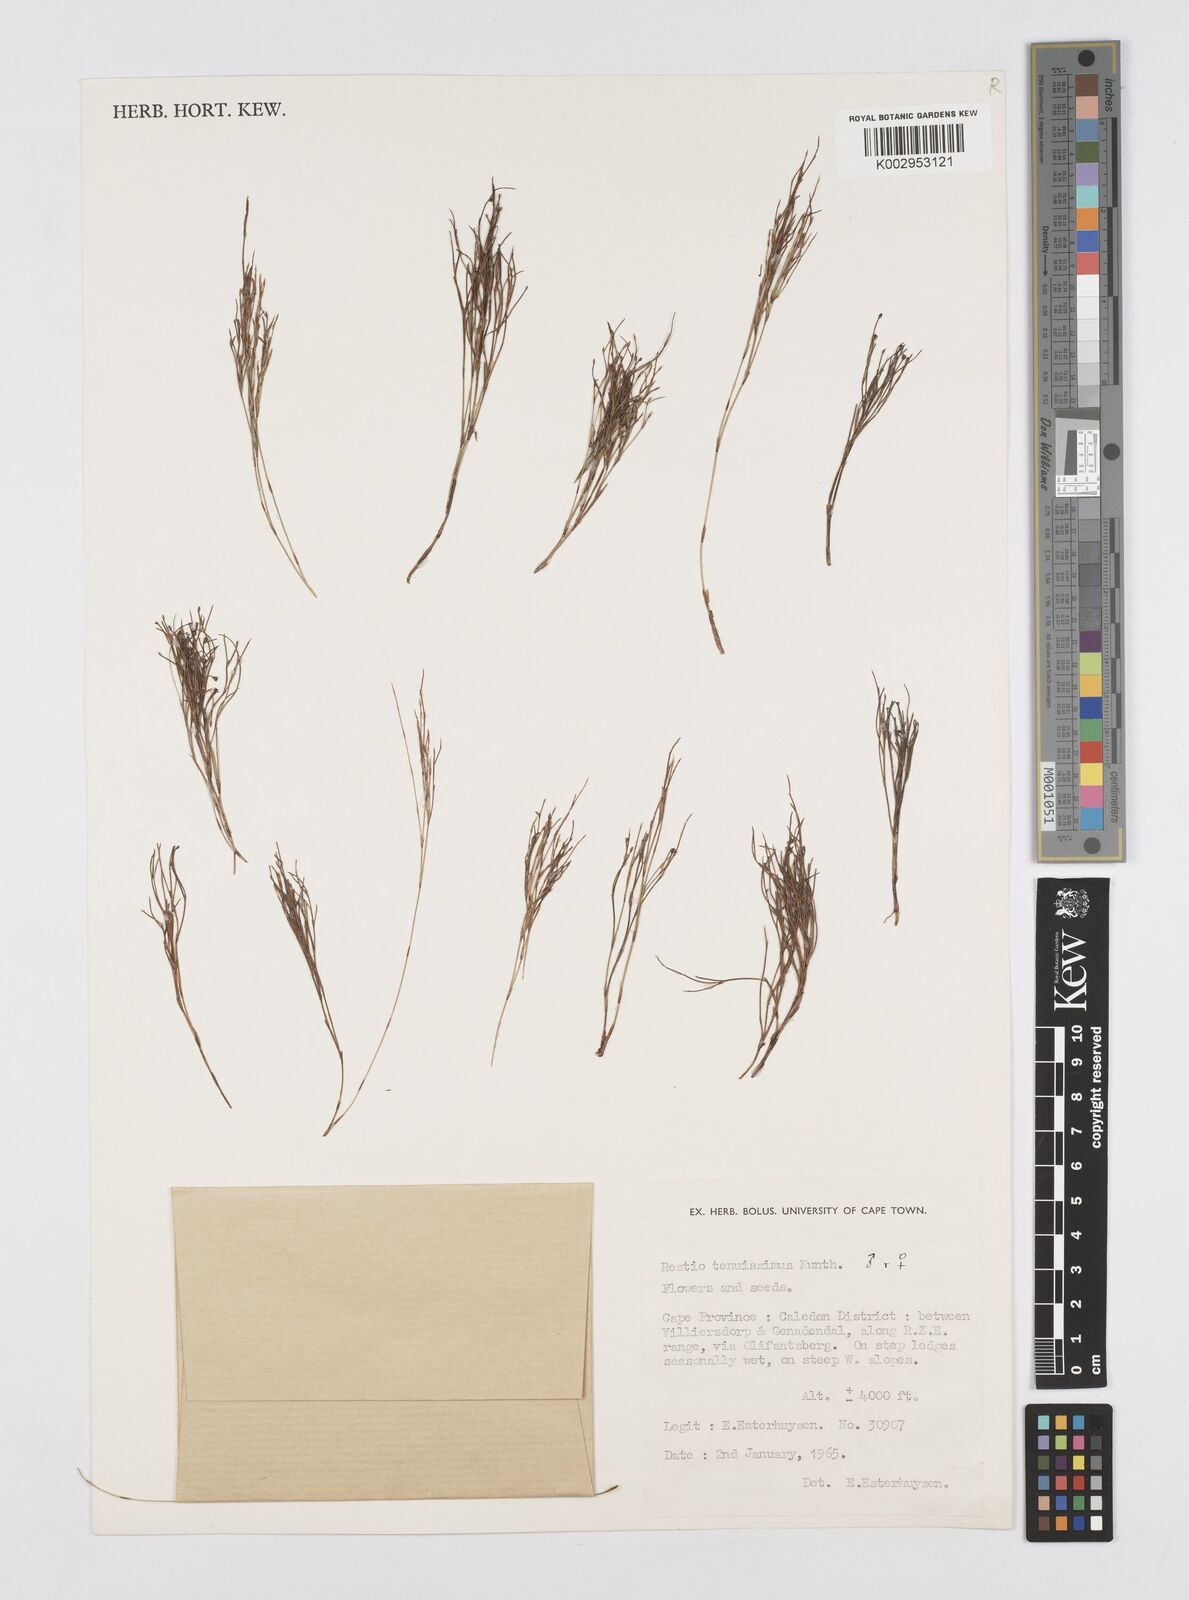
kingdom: Plantae
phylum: Tracheophyta
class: Liliopsida
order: Poales
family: Restionaceae
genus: Restio
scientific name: Restio tenuissimus
